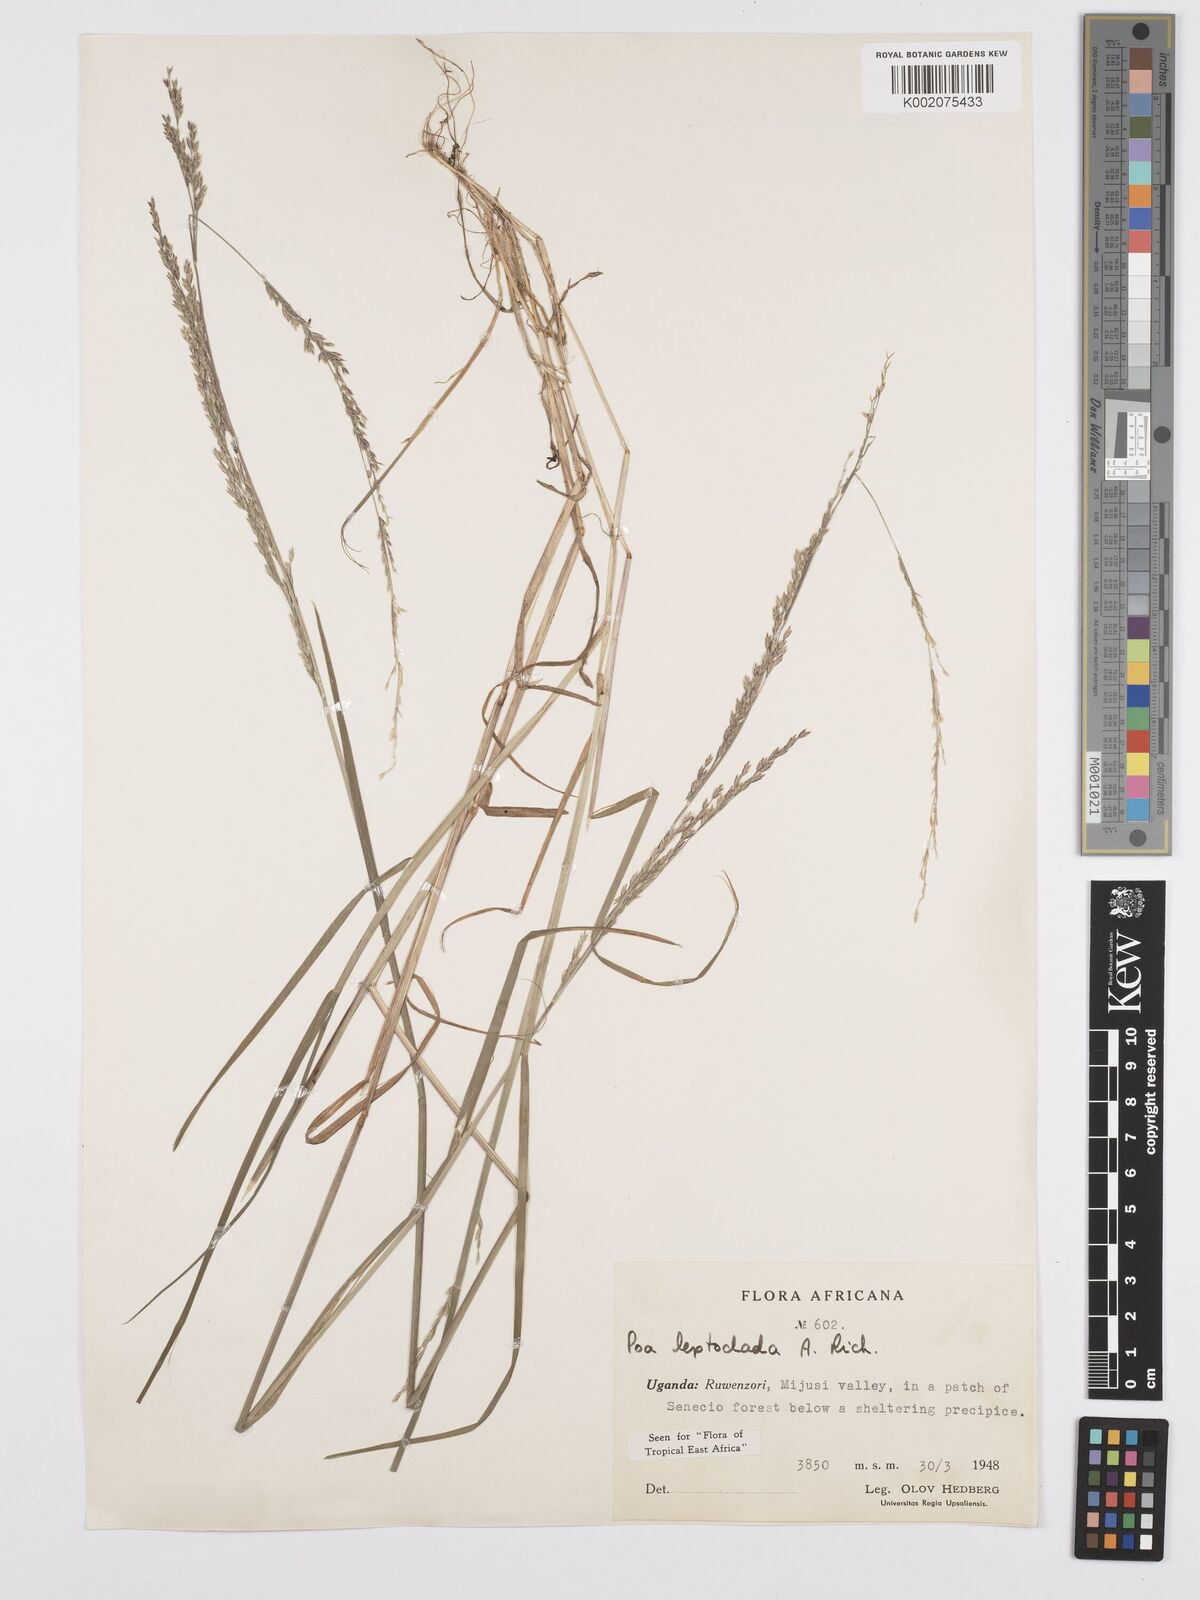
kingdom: Plantae
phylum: Tracheophyta
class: Liliopsida
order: Poales
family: Poaceae
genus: Poa
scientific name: Poa
